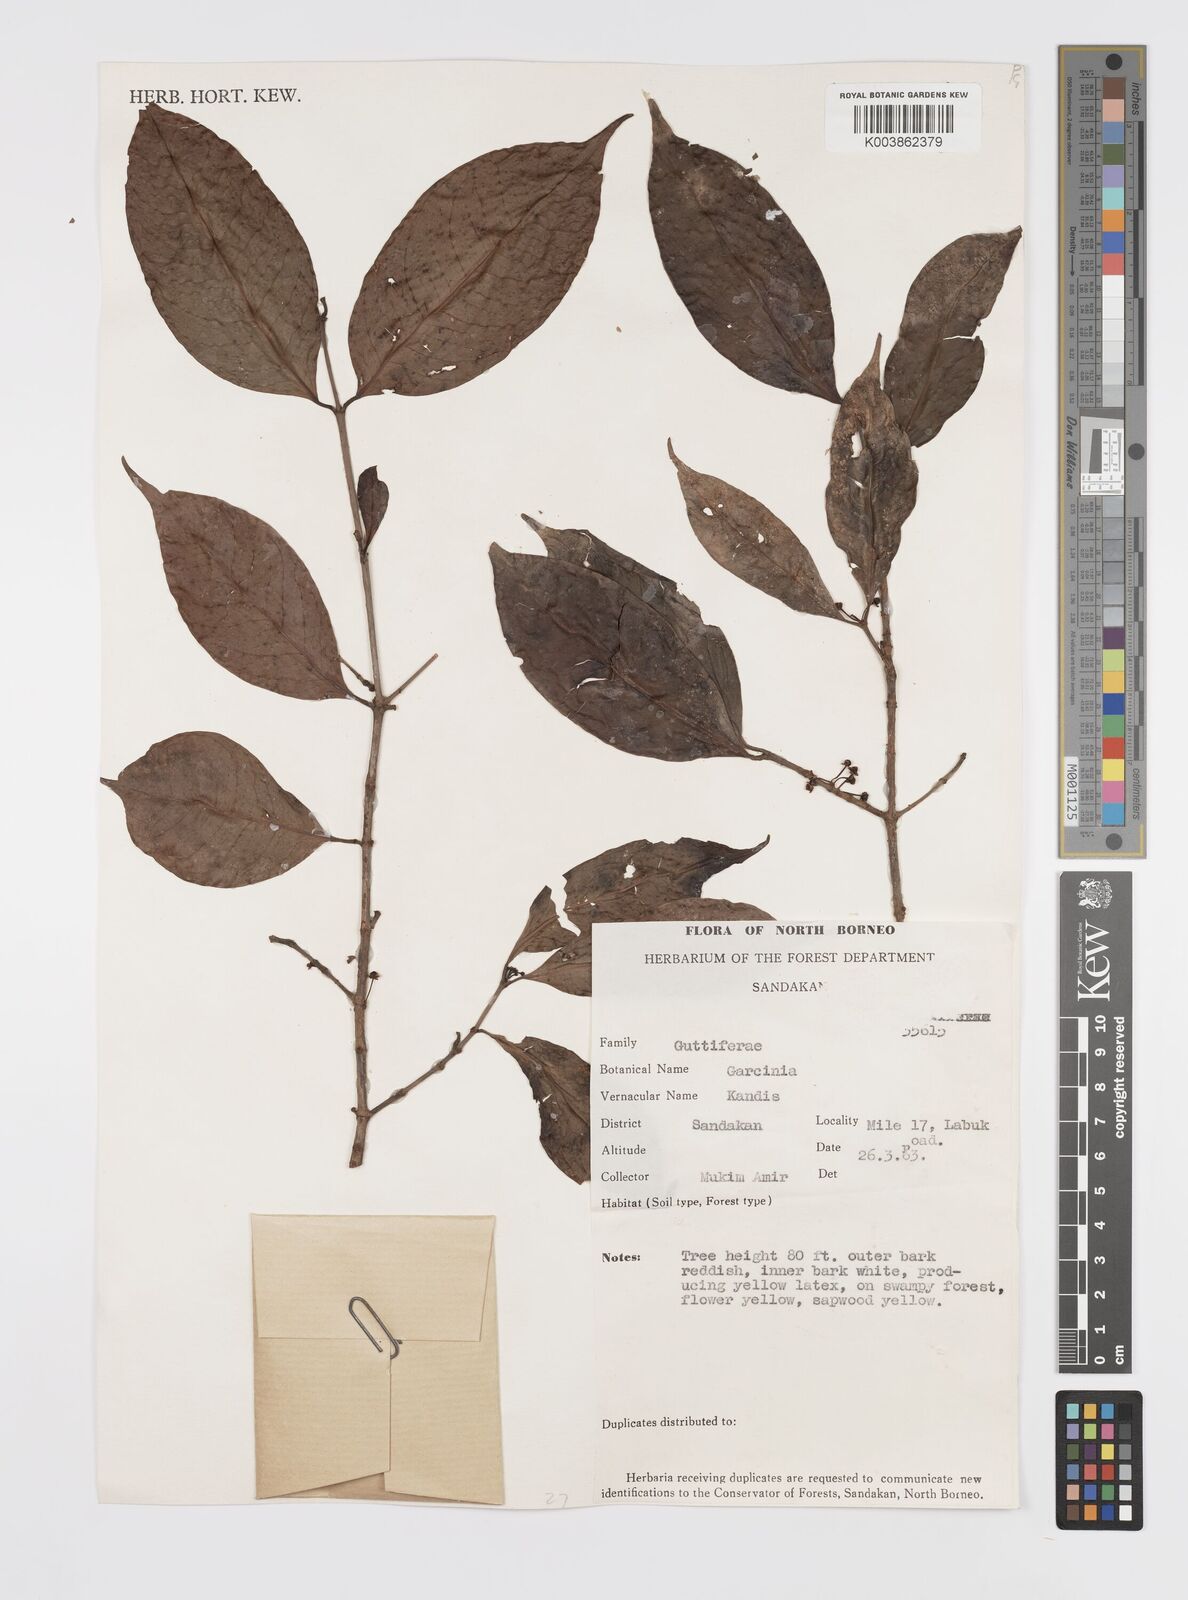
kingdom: Plantae
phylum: Tracheophyta
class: Magnoliopsida
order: Malpighiales
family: Clusiaceae
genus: Garcinia
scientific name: Garcinia
